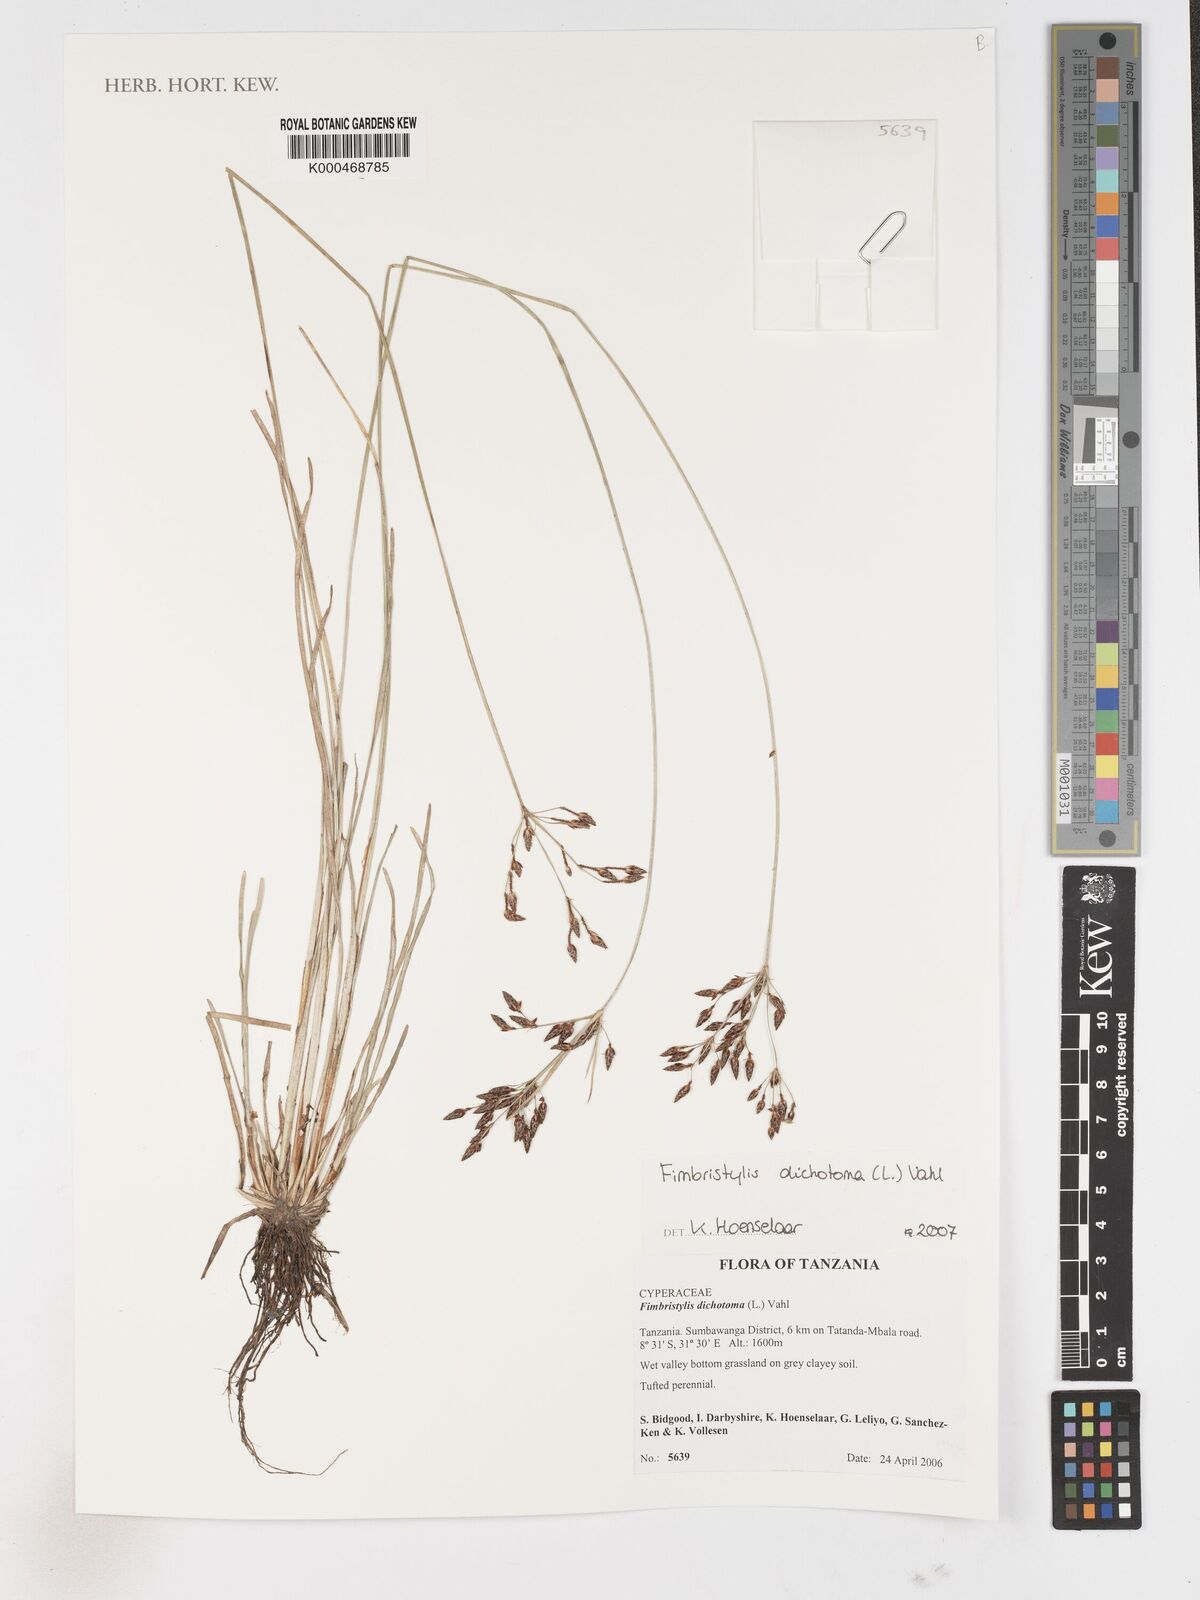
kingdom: Plantae
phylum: Tracheophyta
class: Liliopsida
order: Poales
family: Cyperaceae
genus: Fimbristylis
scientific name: Fimbristylis dichotoma
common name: Forked fimbry
